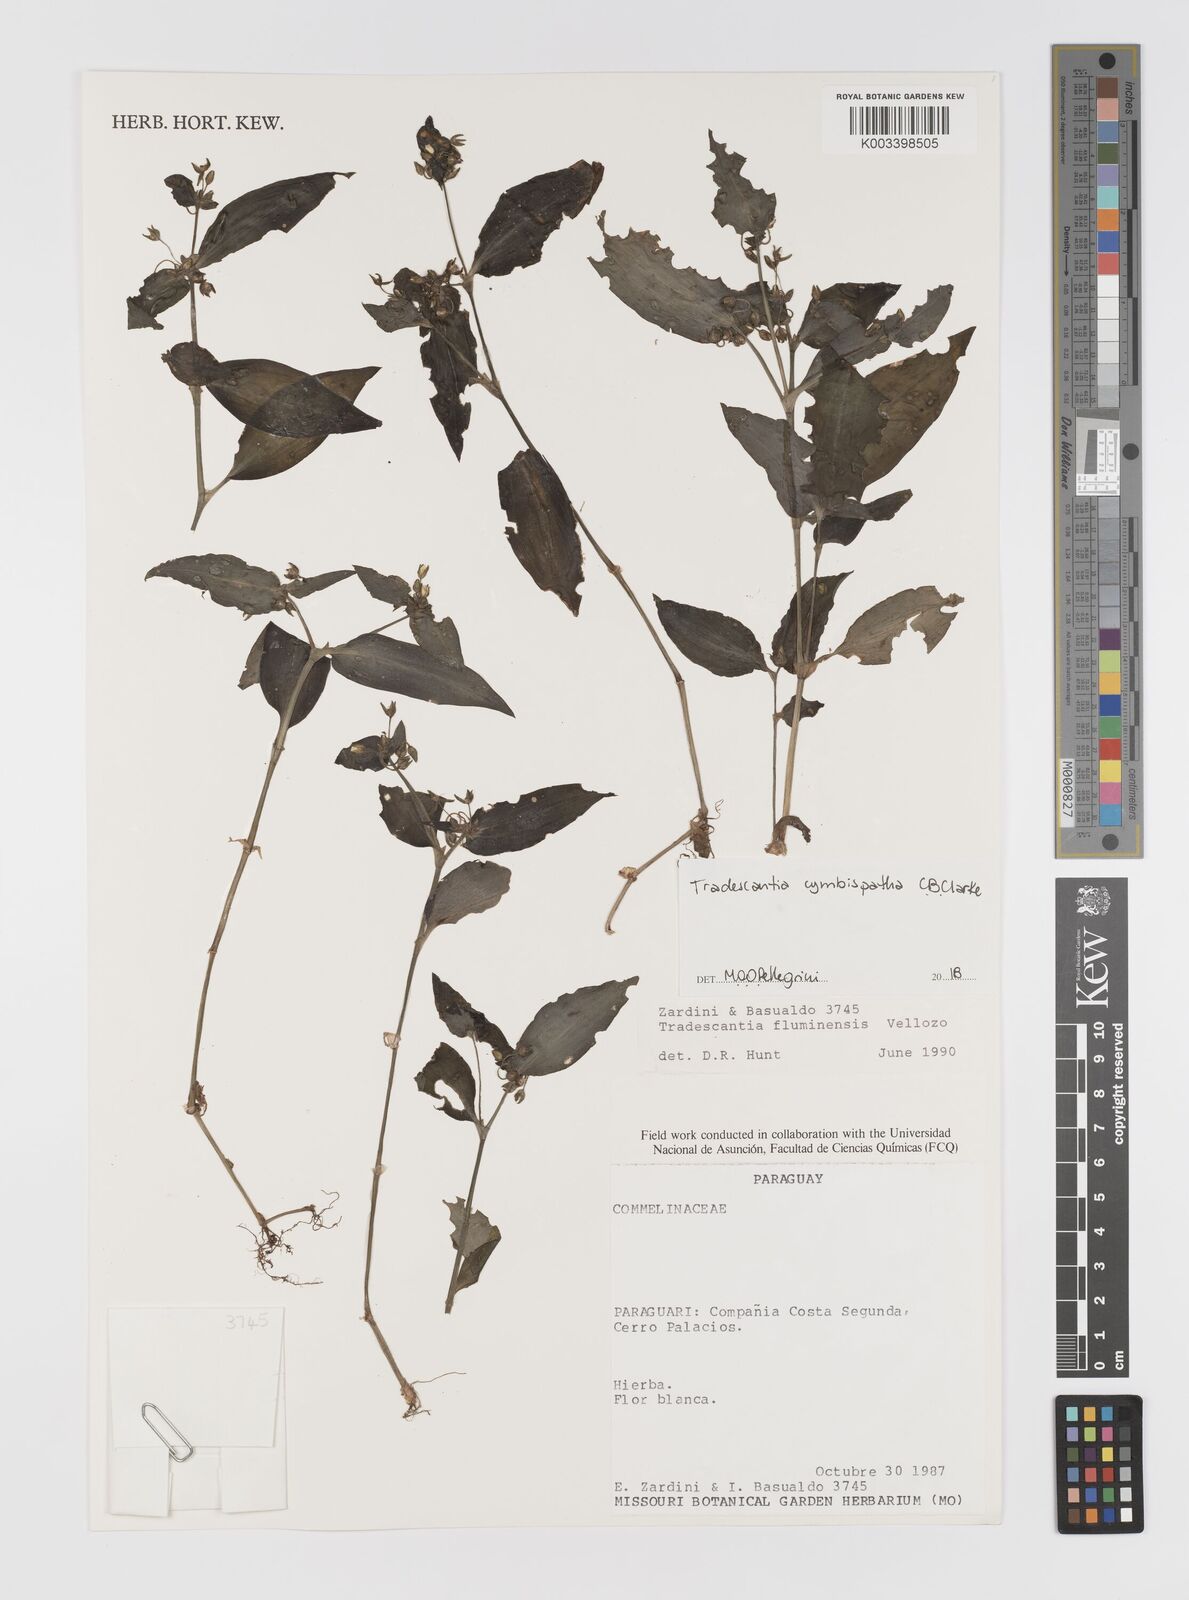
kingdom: Plantae
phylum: Tracheophyta
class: Liliopsida
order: Commelinales
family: Commelinaceae
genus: Tradescantia
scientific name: Tradescantia cymbispatha
